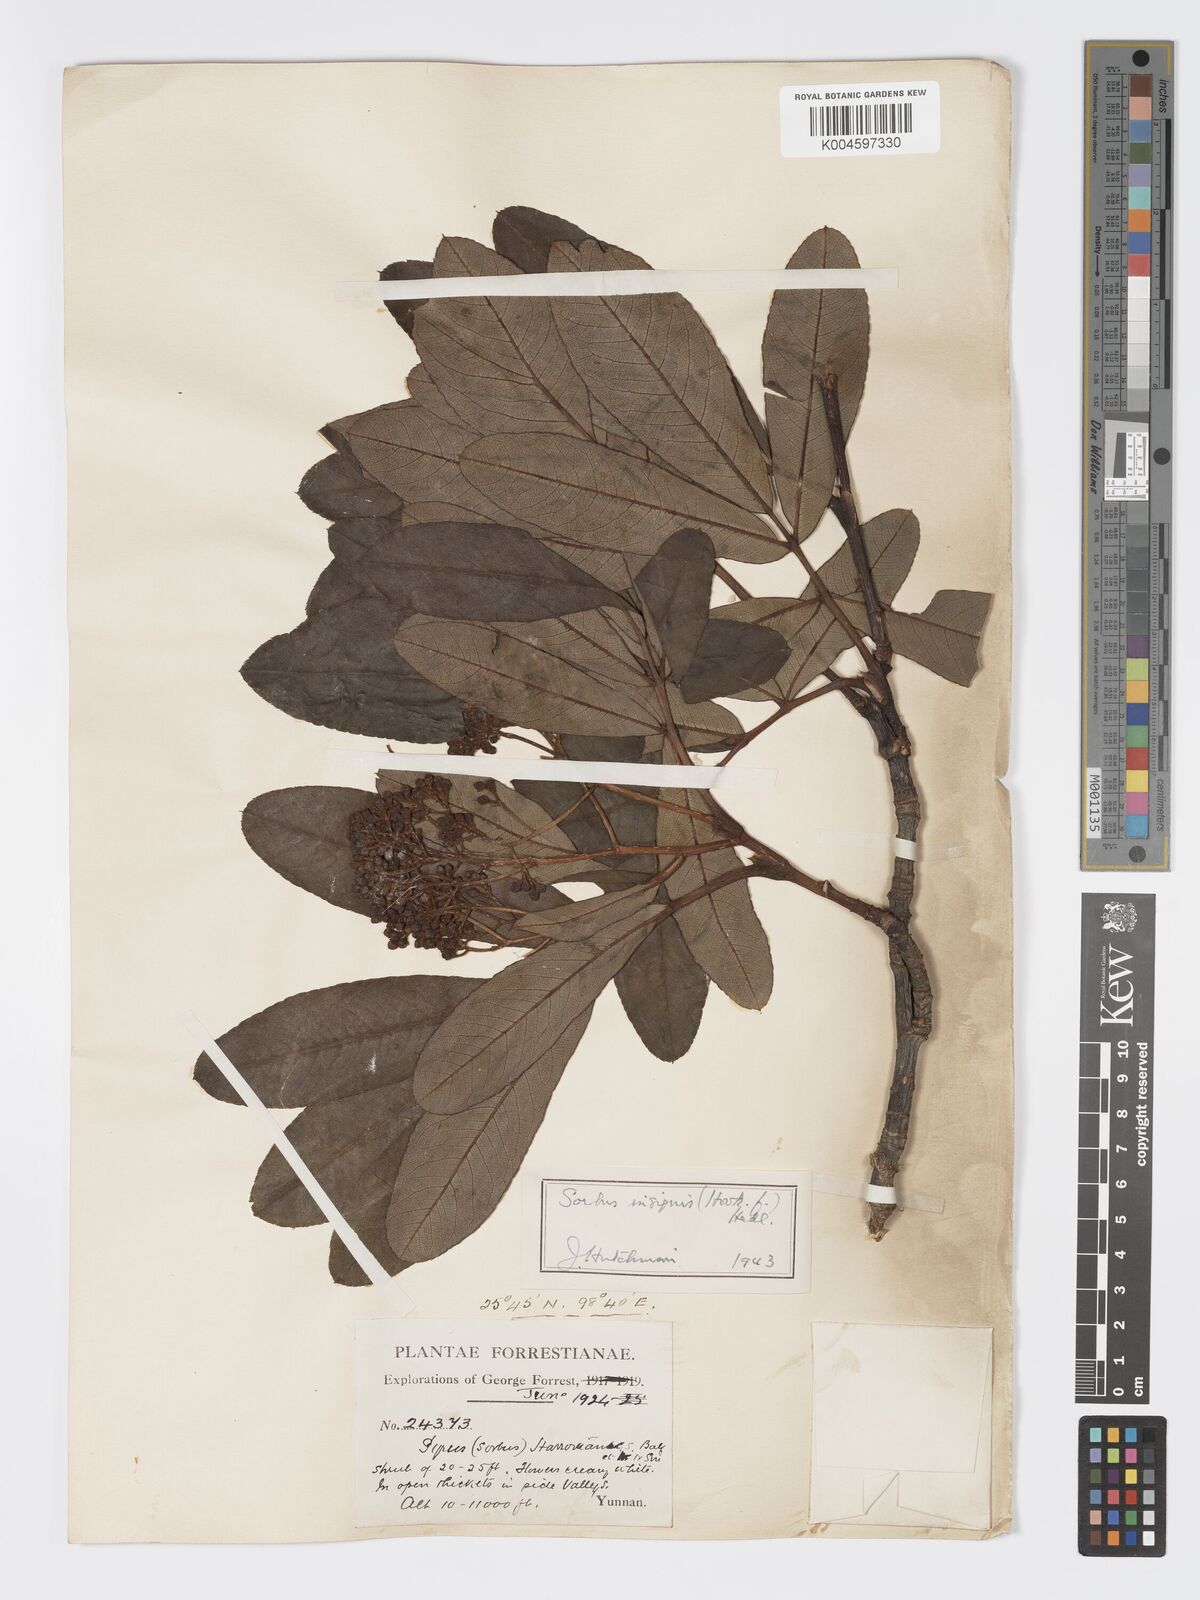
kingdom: Plantae
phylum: Tracheophyta
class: Magnoliopsida
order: Rosales
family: Rosaceae
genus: Sorbus
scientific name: Sorbus
